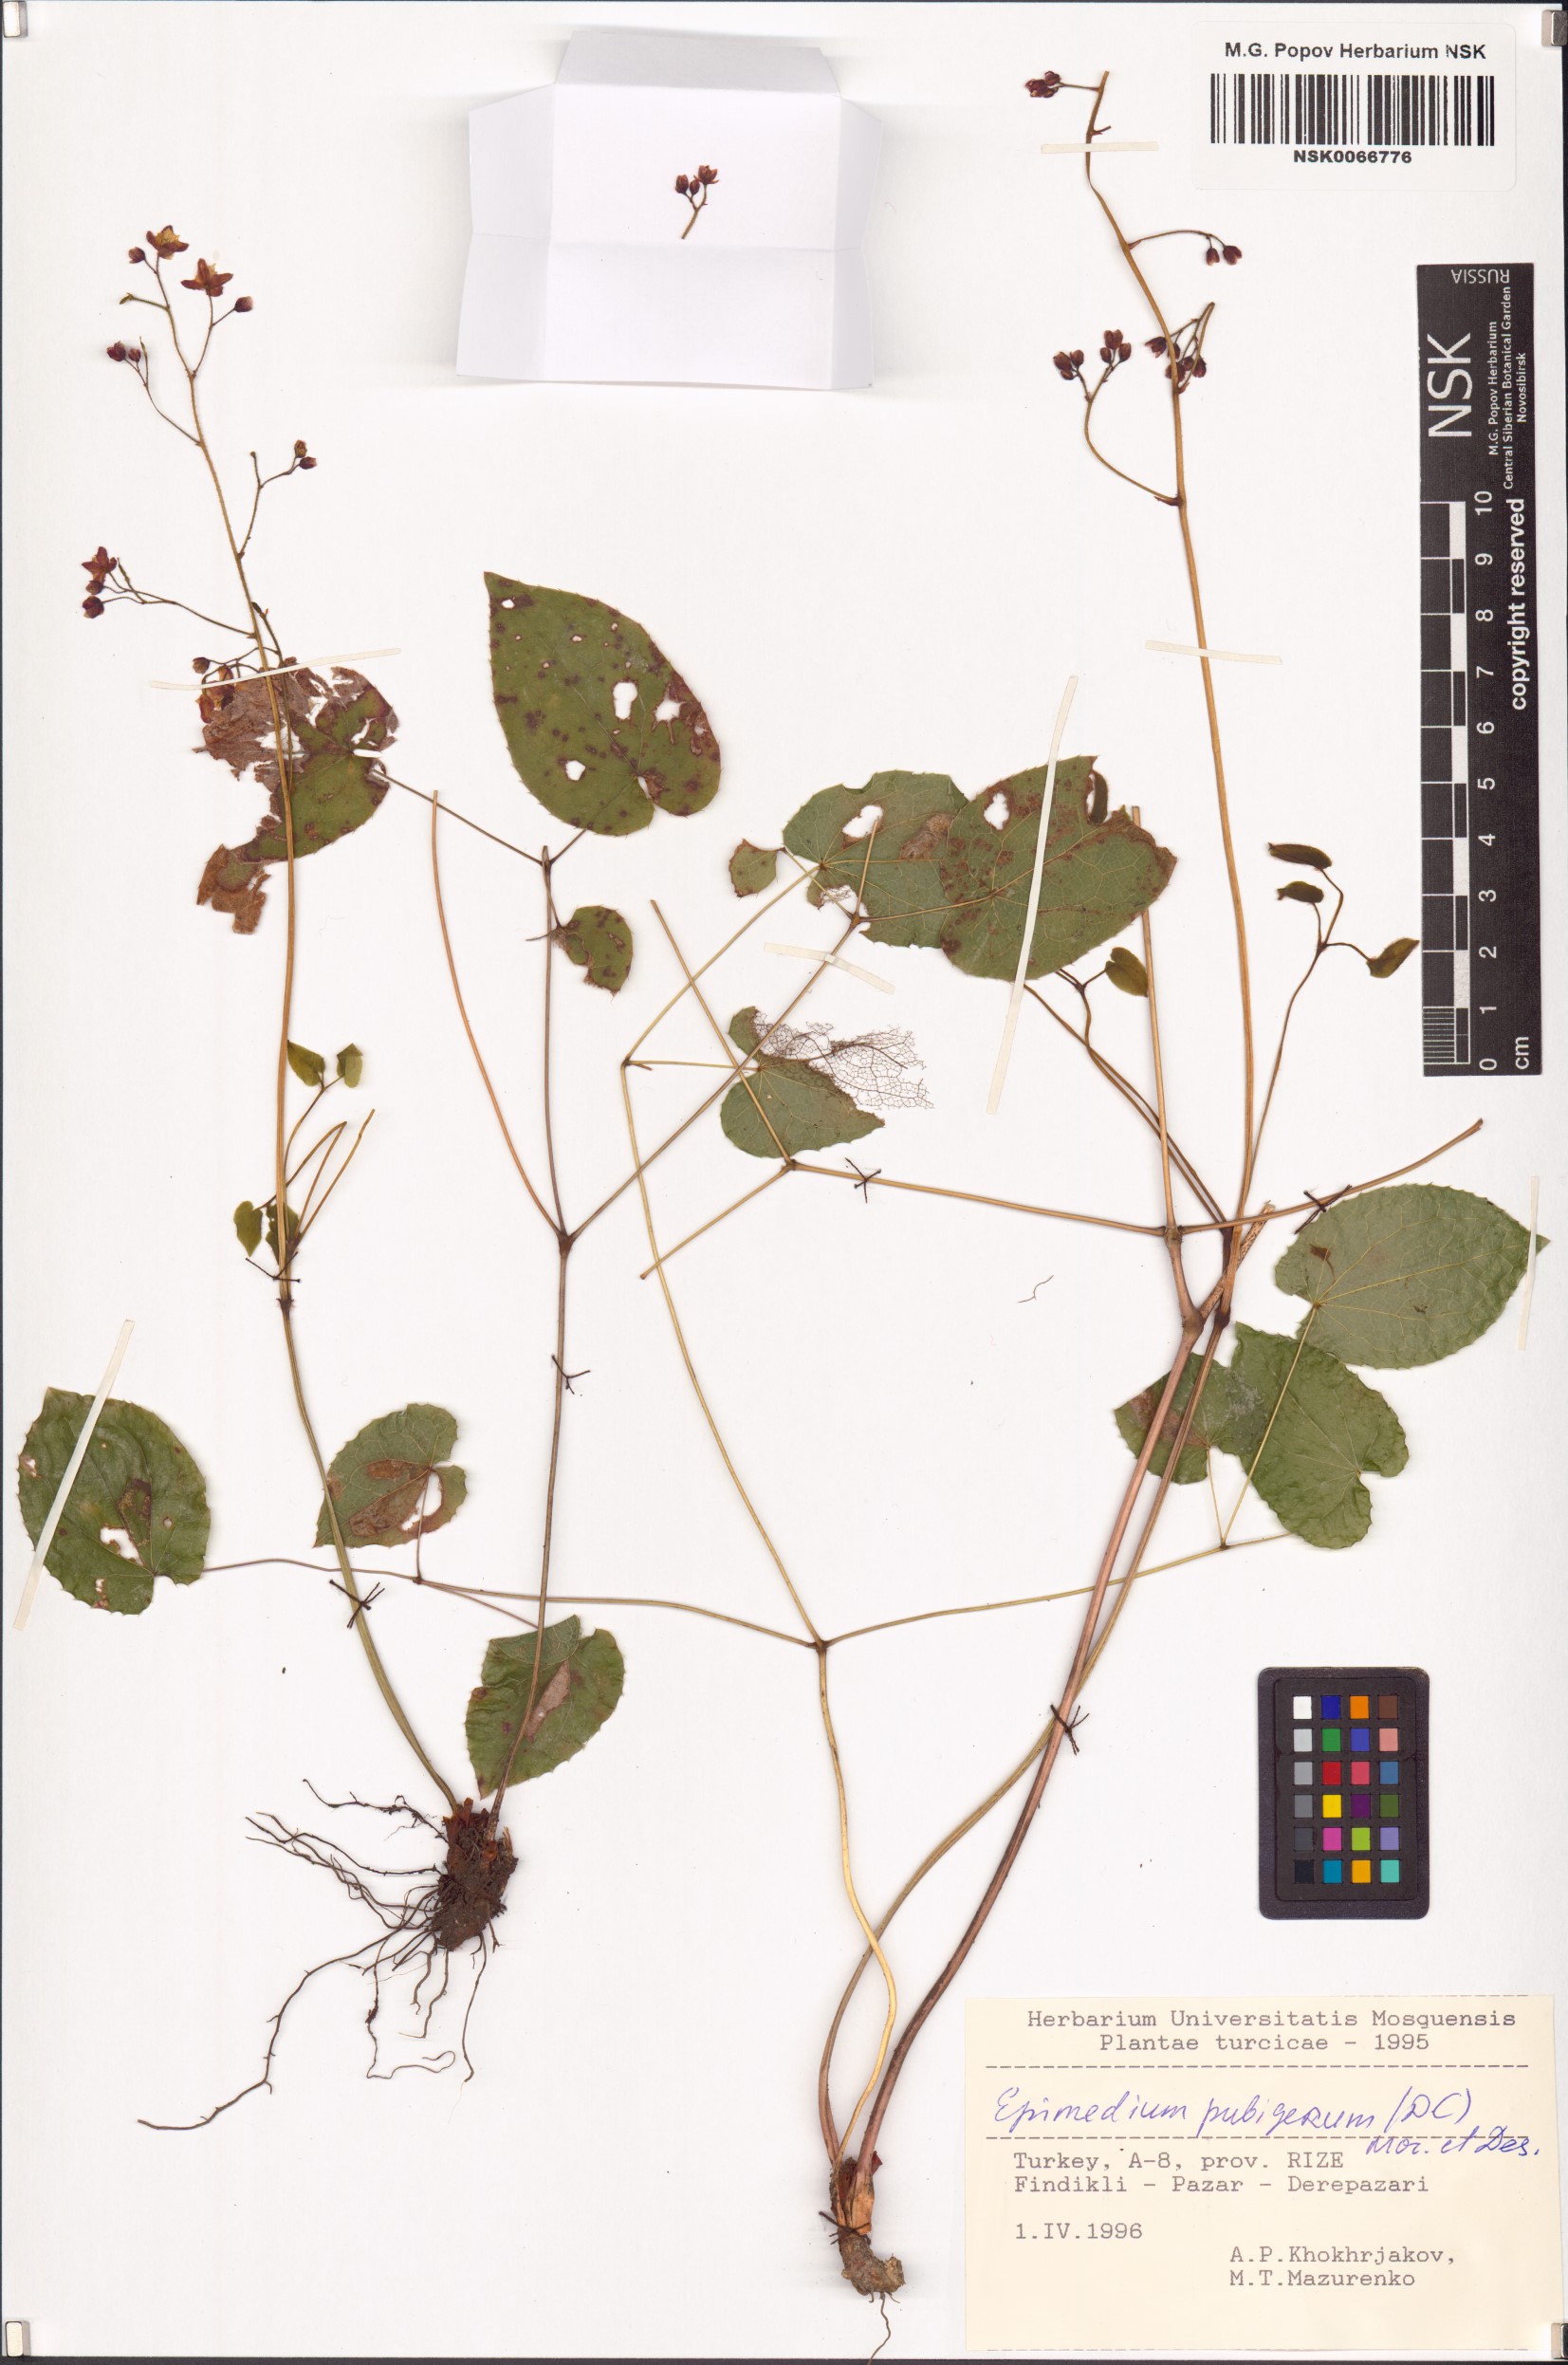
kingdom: Plantae
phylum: Tracheophyta
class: Magnoliopsida
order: Ranunculales
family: Berberidaceae
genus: Epimedium
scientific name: Epimedium pubigerum
